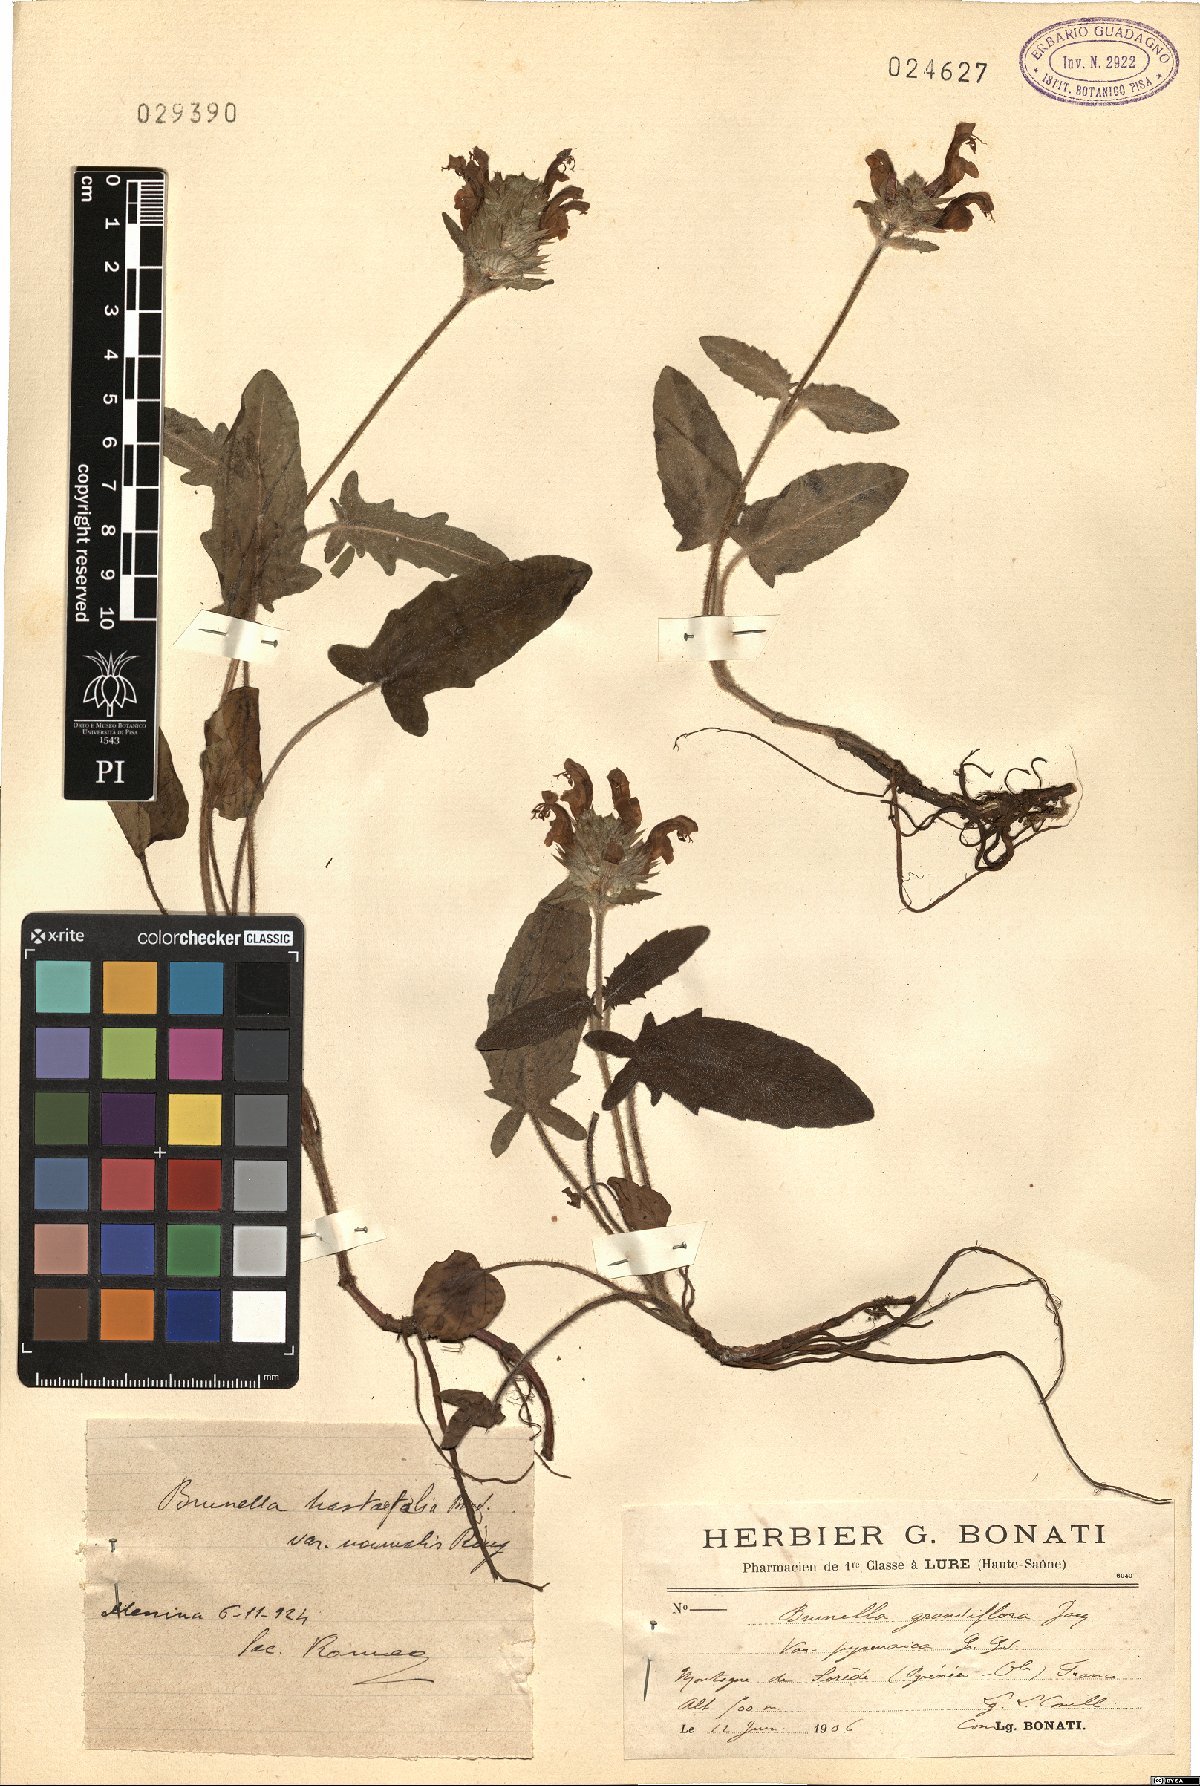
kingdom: Plantae
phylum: Tracheophyta
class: Magnoliopsida
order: Lamiales
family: Lamiaceae
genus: Prunella
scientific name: Prunella grandiflora
